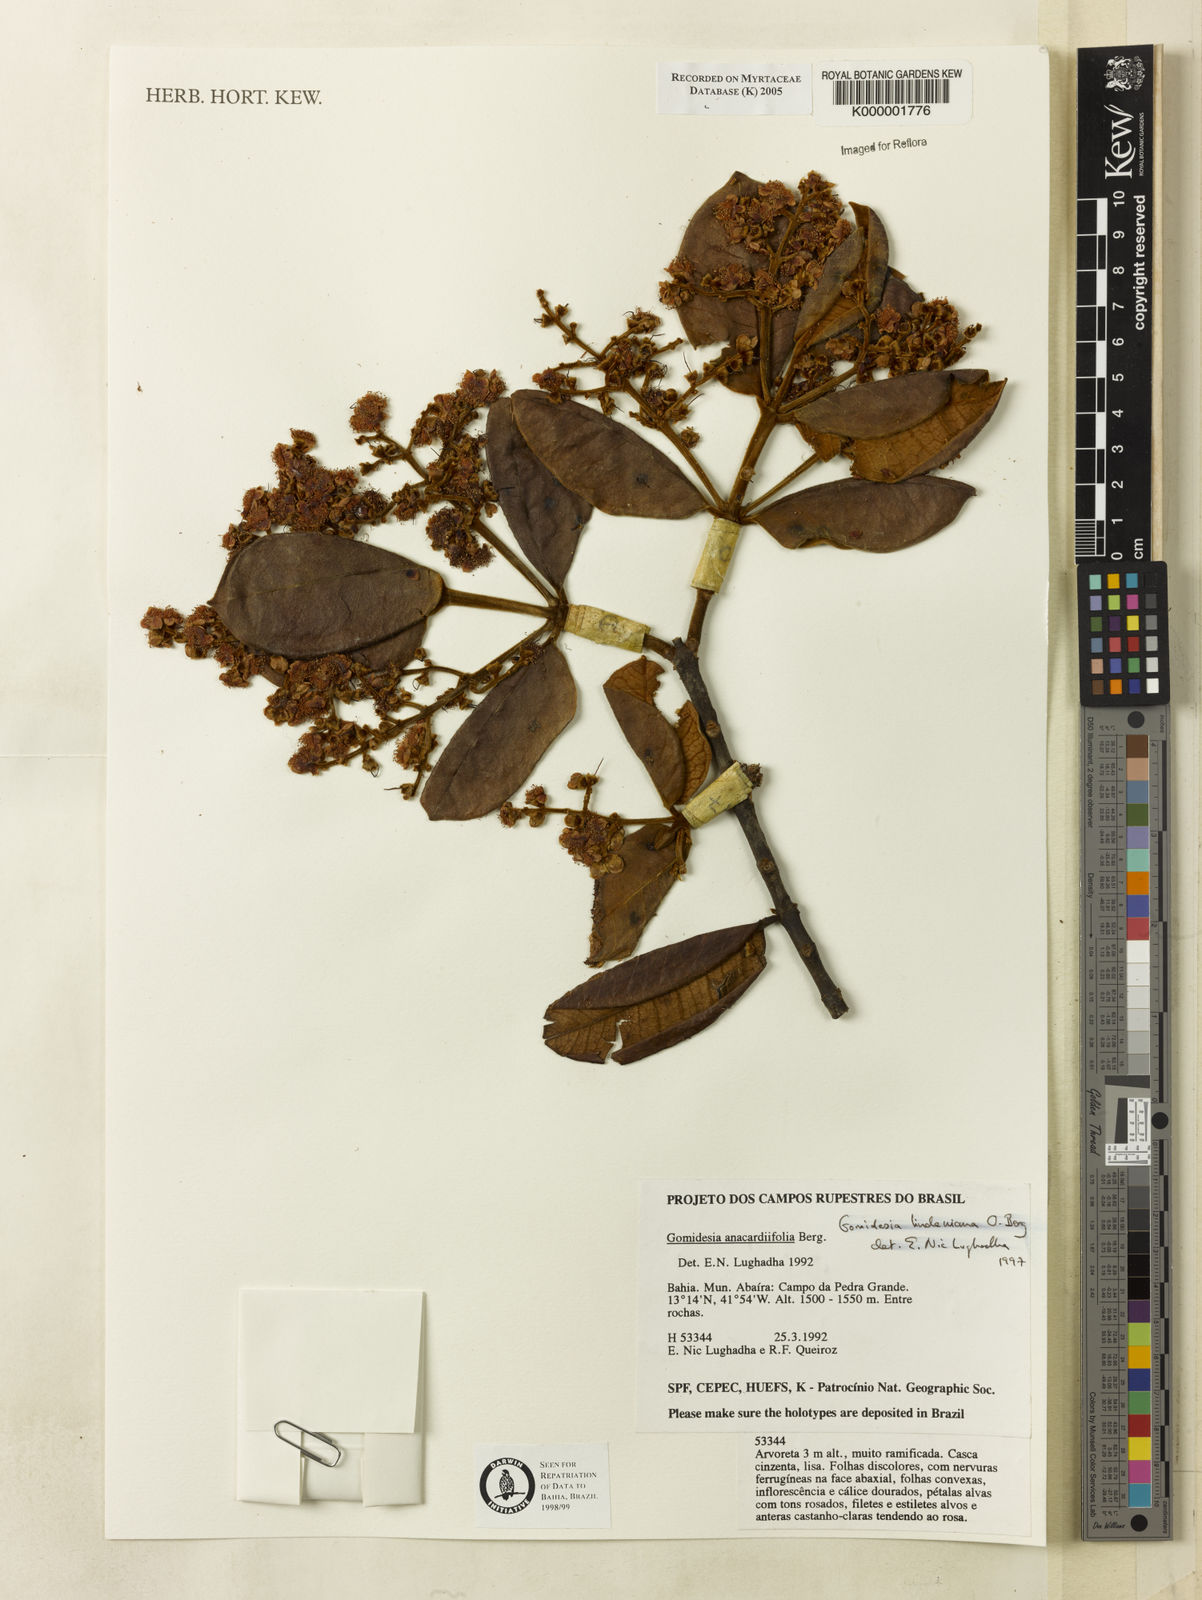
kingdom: Plantae
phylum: Tracheophyta
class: Magnoliopsida
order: Myrtales
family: Myrtaceae
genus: Myrcia
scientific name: Myrcia fenzliana
